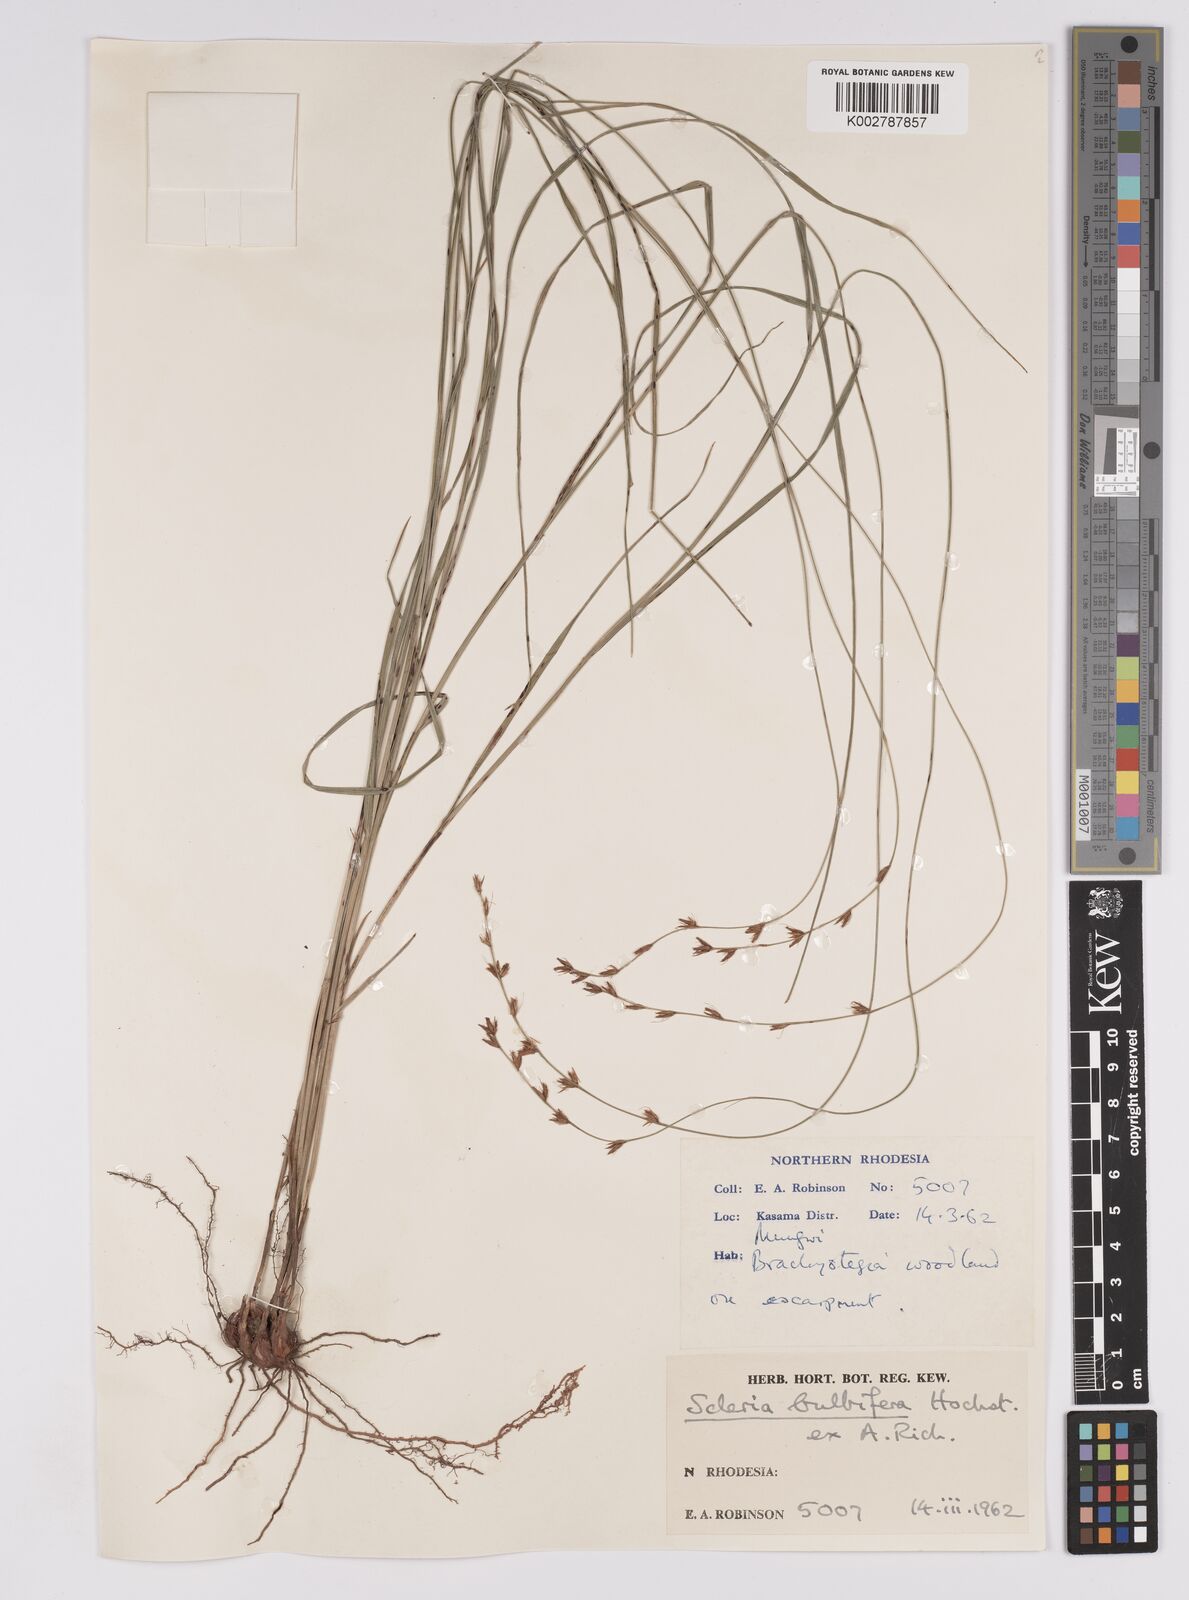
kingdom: Plantae
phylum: Tracheophyta
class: Liliopsida
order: Poales
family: Cyperaceae
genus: Scleria
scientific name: Scleria bulbifera
